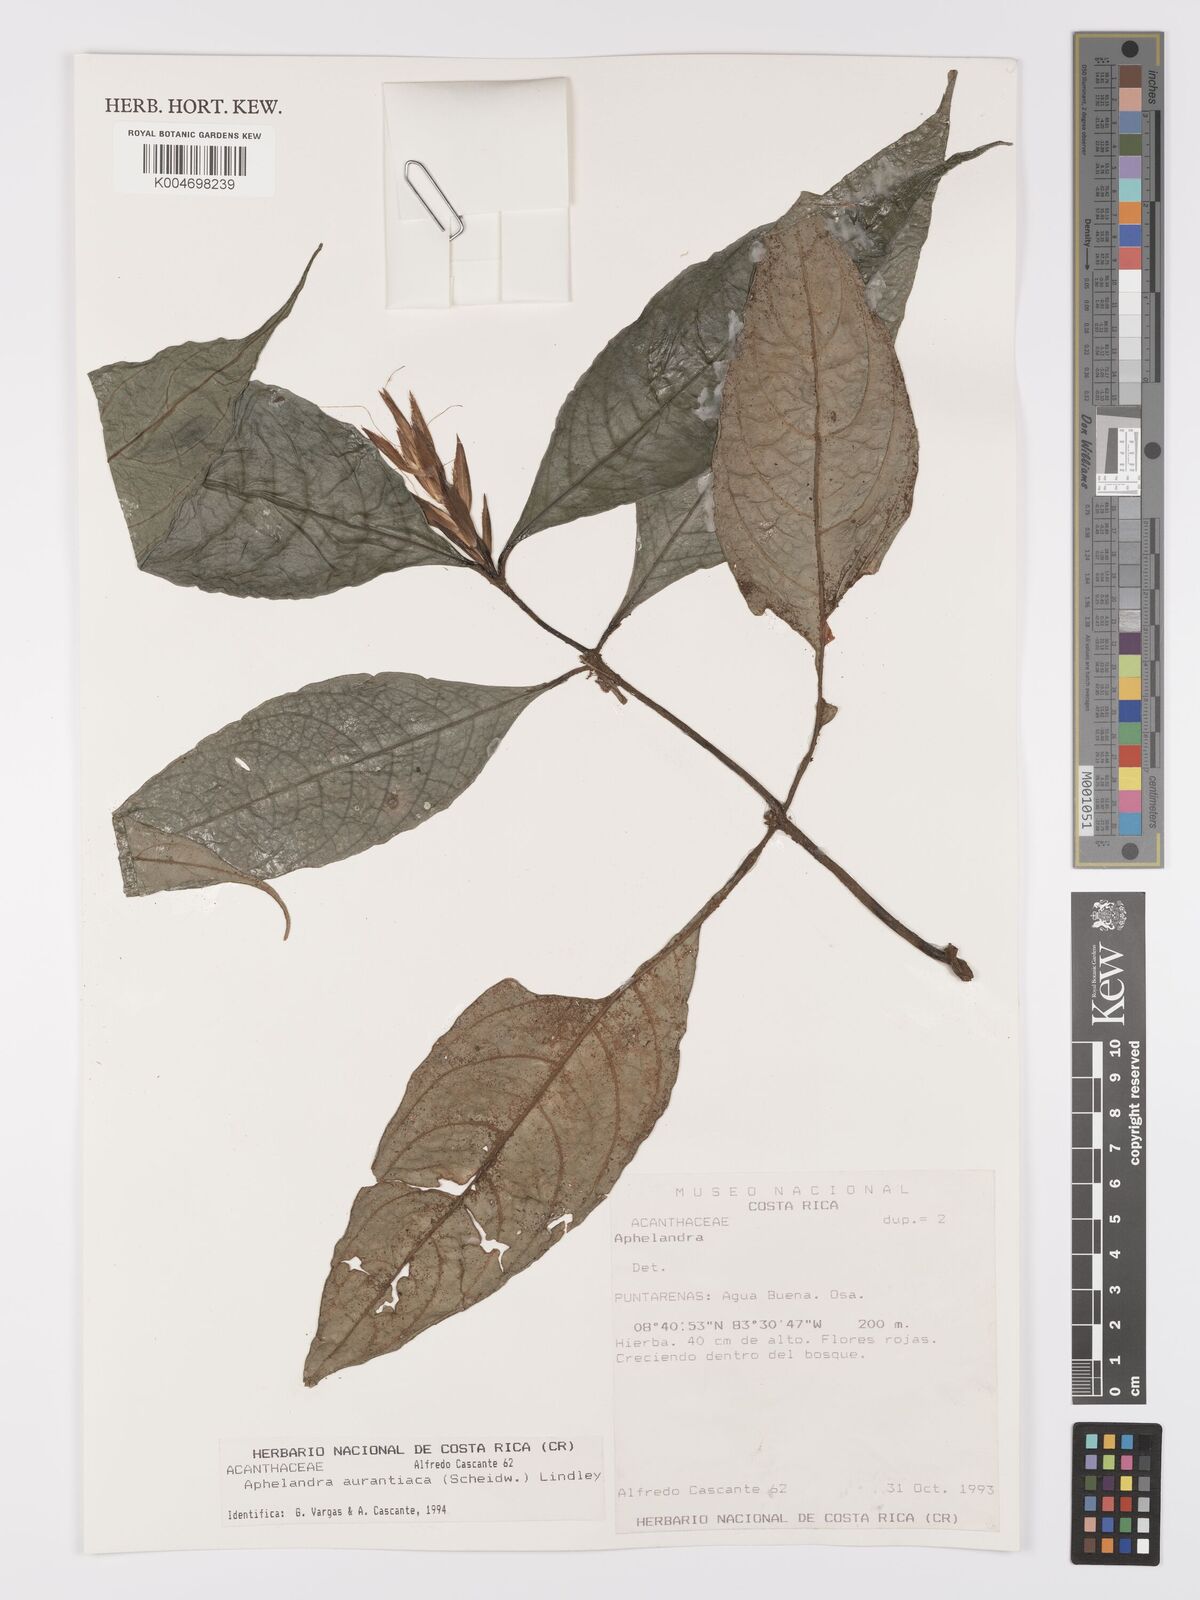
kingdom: Plantae
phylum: Tracheophyta
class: Magnoliopsida
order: Lamiales
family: Acanthaceae
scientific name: Acanthaceae
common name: Acanthaceae
